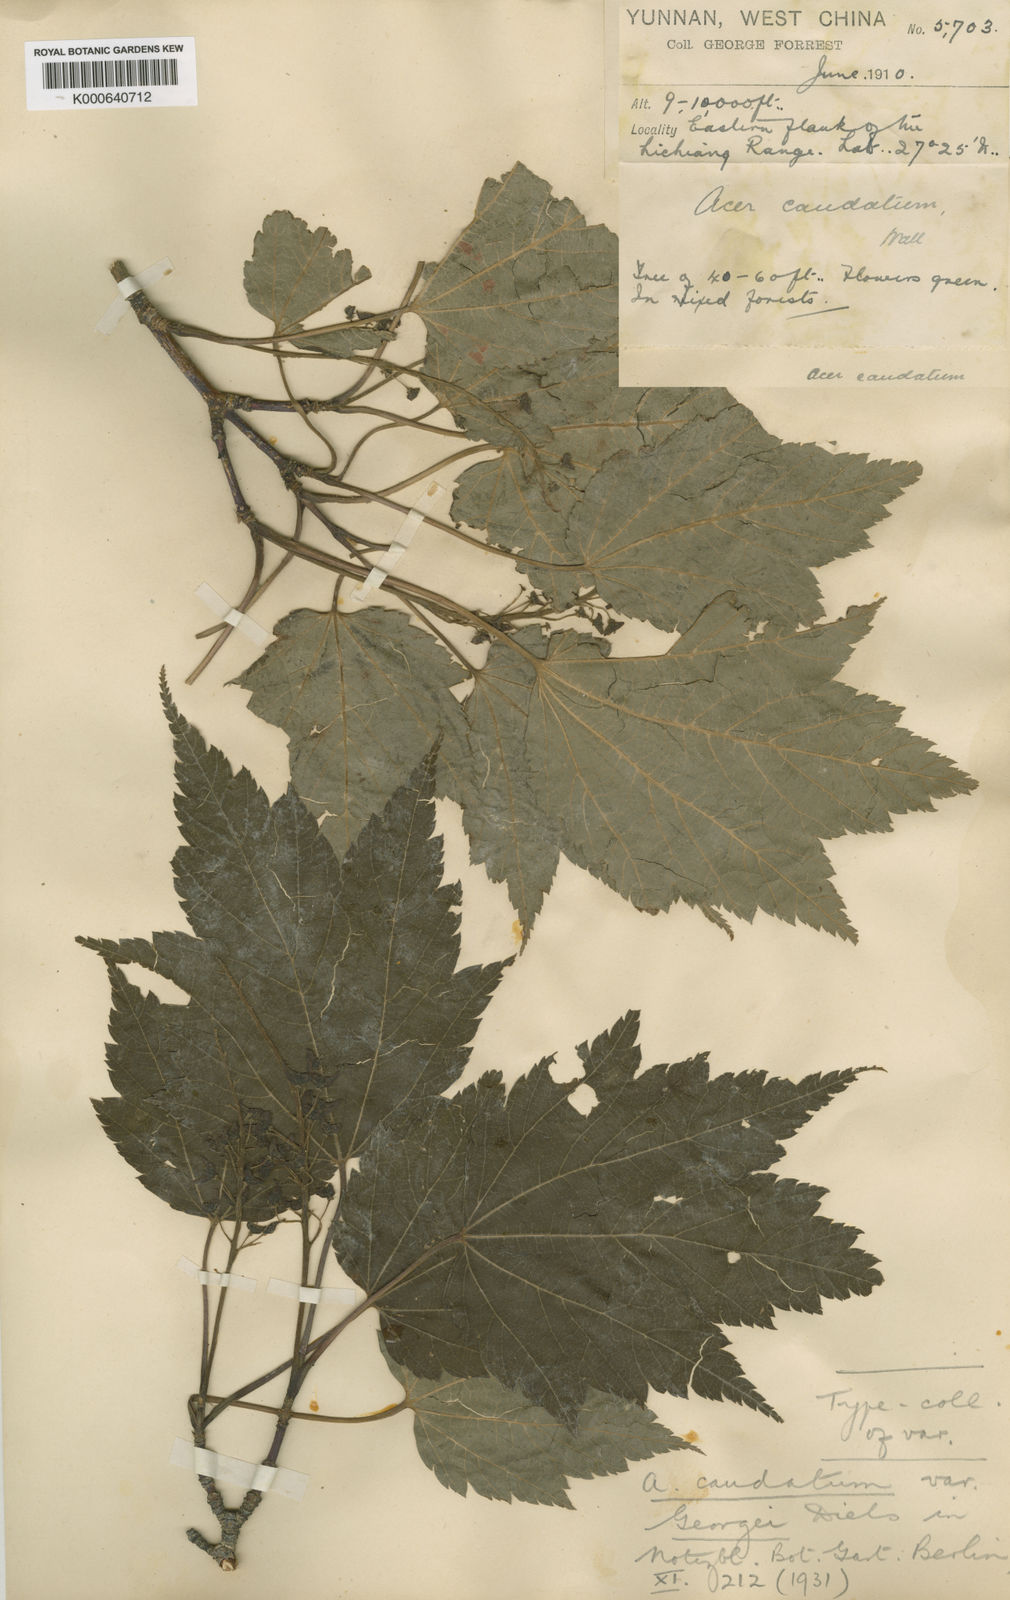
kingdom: Plantae
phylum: Tracheophyta
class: Magnoliopsida
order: Sapindales
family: Sapindaceae
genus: Acer
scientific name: Acer caudatum
